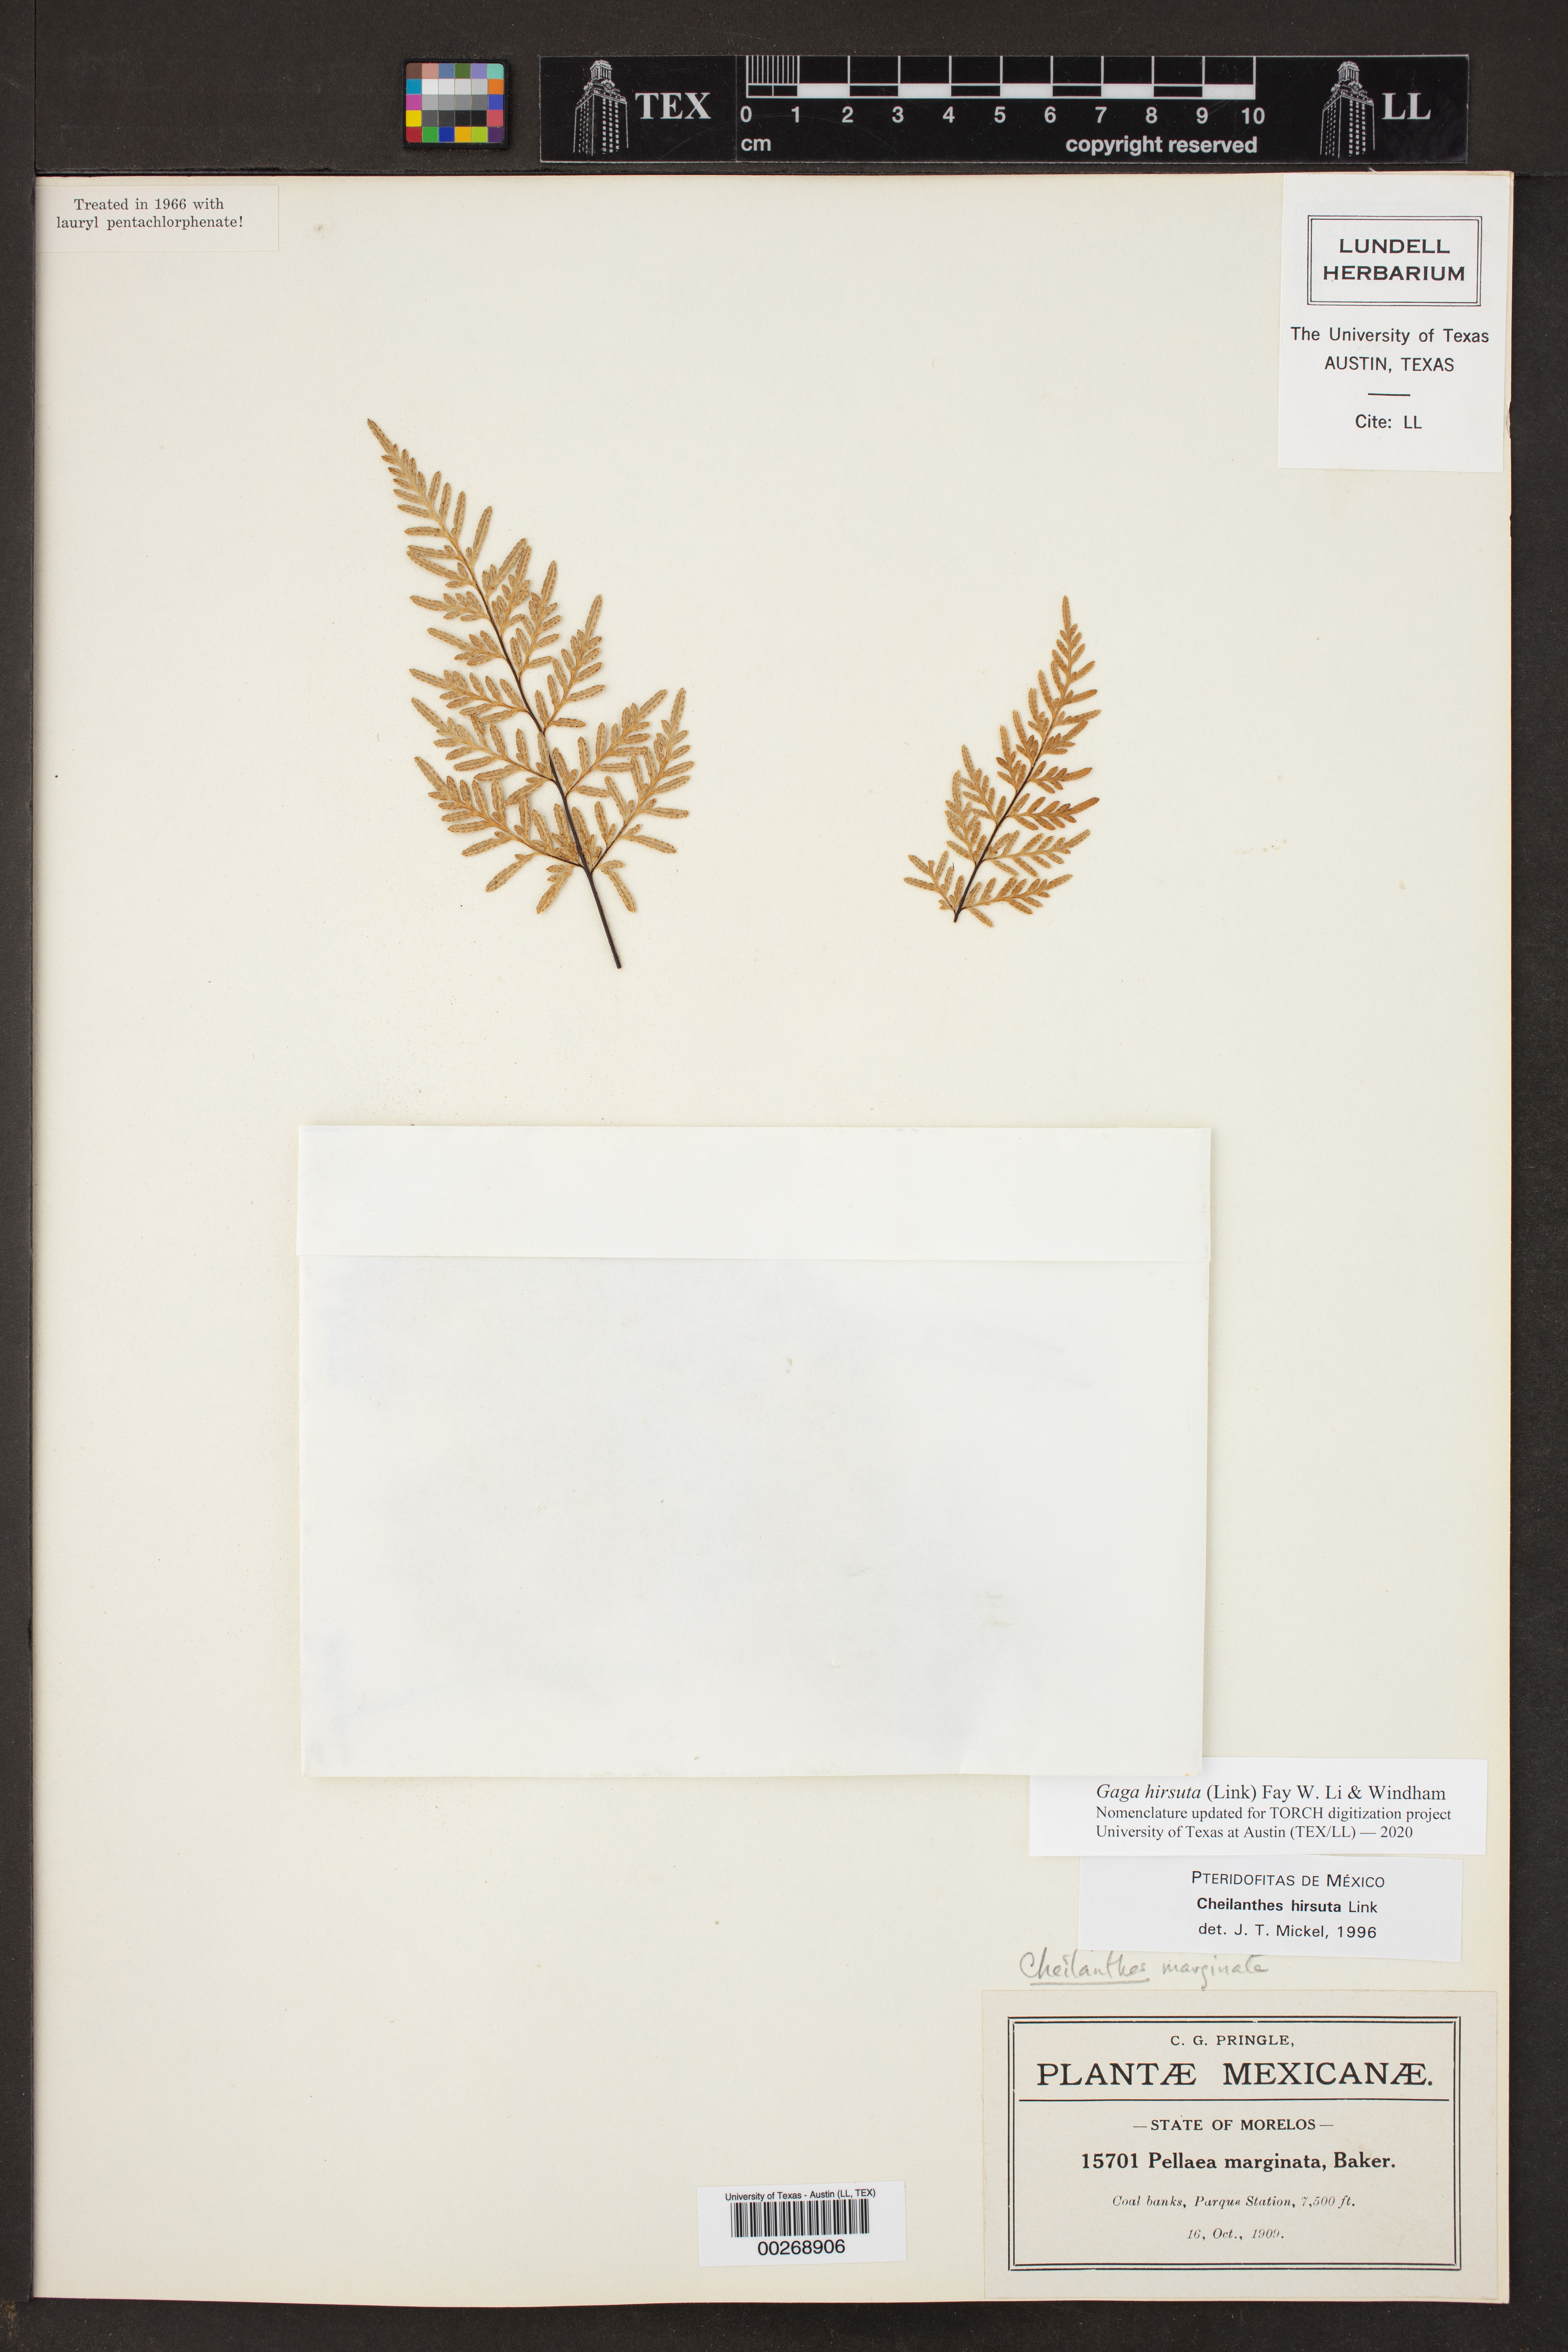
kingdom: Plantae
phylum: Tracheophyta
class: Polypodiopsida
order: Polypodiales
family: Pteridaceae
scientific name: Pteridaceae
